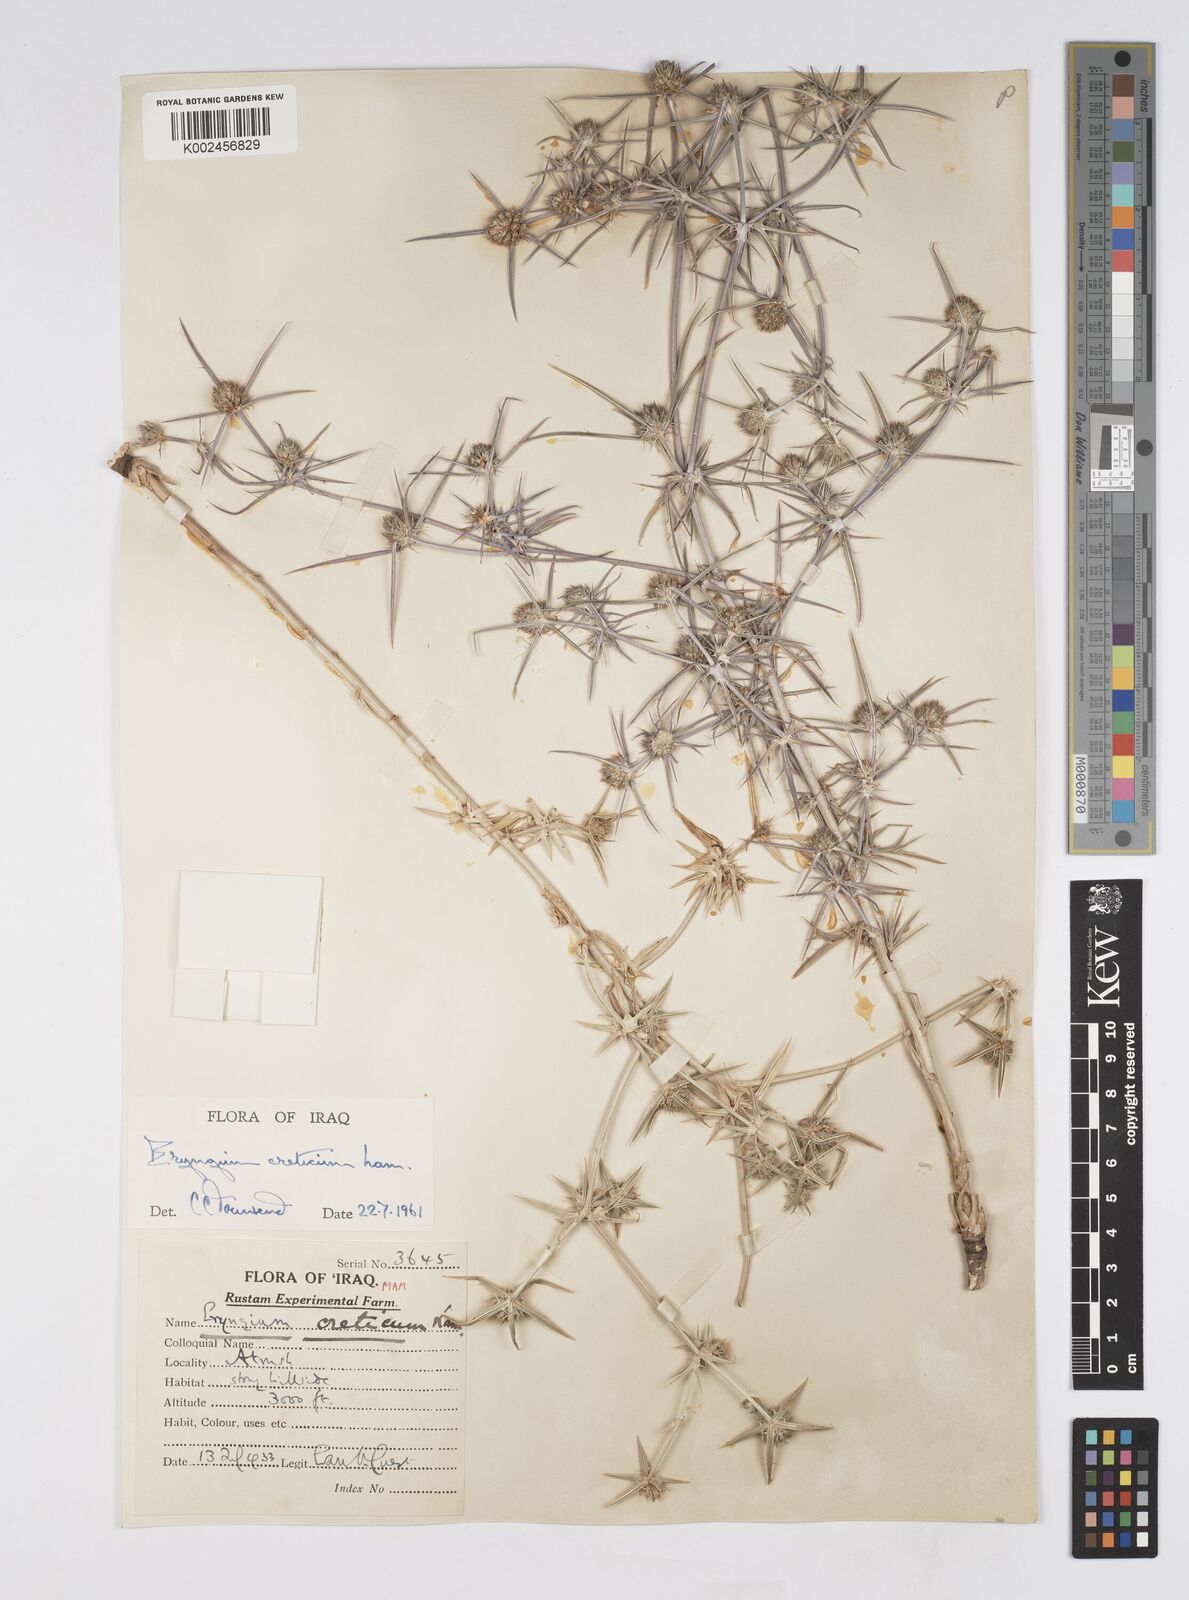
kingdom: Plantae
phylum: Tracheophyta
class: Magnoliopsida
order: Apiales
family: Apiaceae
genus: Eryngium
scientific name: Eryngium creticum
